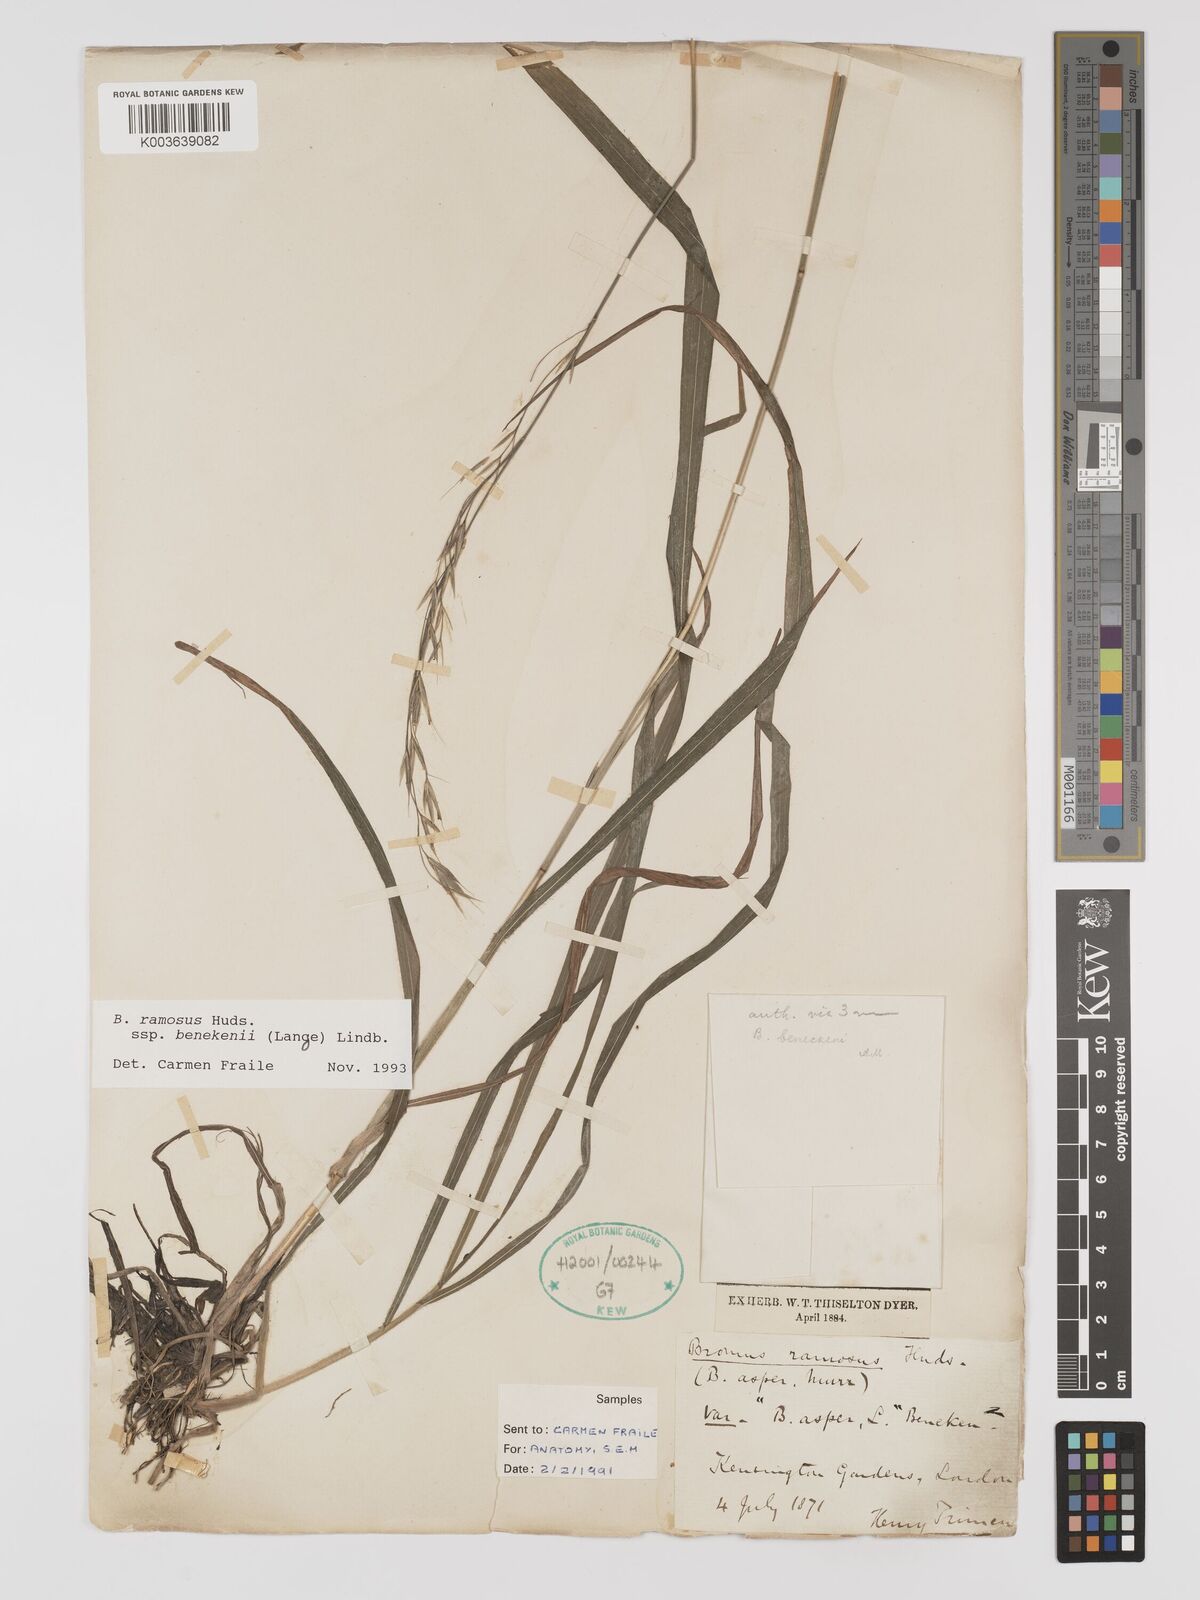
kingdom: Plantae
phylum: Tracheophyta
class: Liliopsida
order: Poales
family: Poaceae
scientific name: Poaceae
